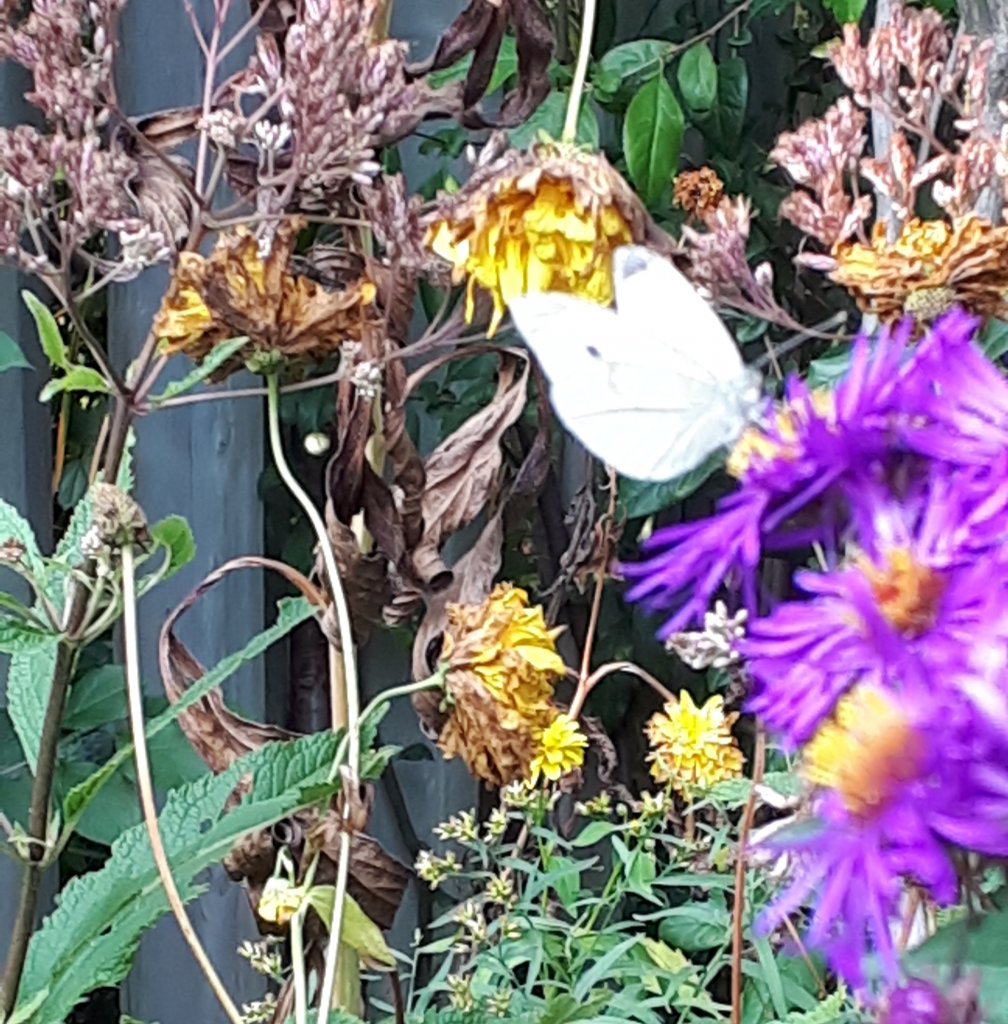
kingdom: Animalia
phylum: Arthropoda
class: Insecta
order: Lepidoptera
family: Pieridae
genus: Pieris
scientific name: Pieris rapae
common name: Cabbage White
